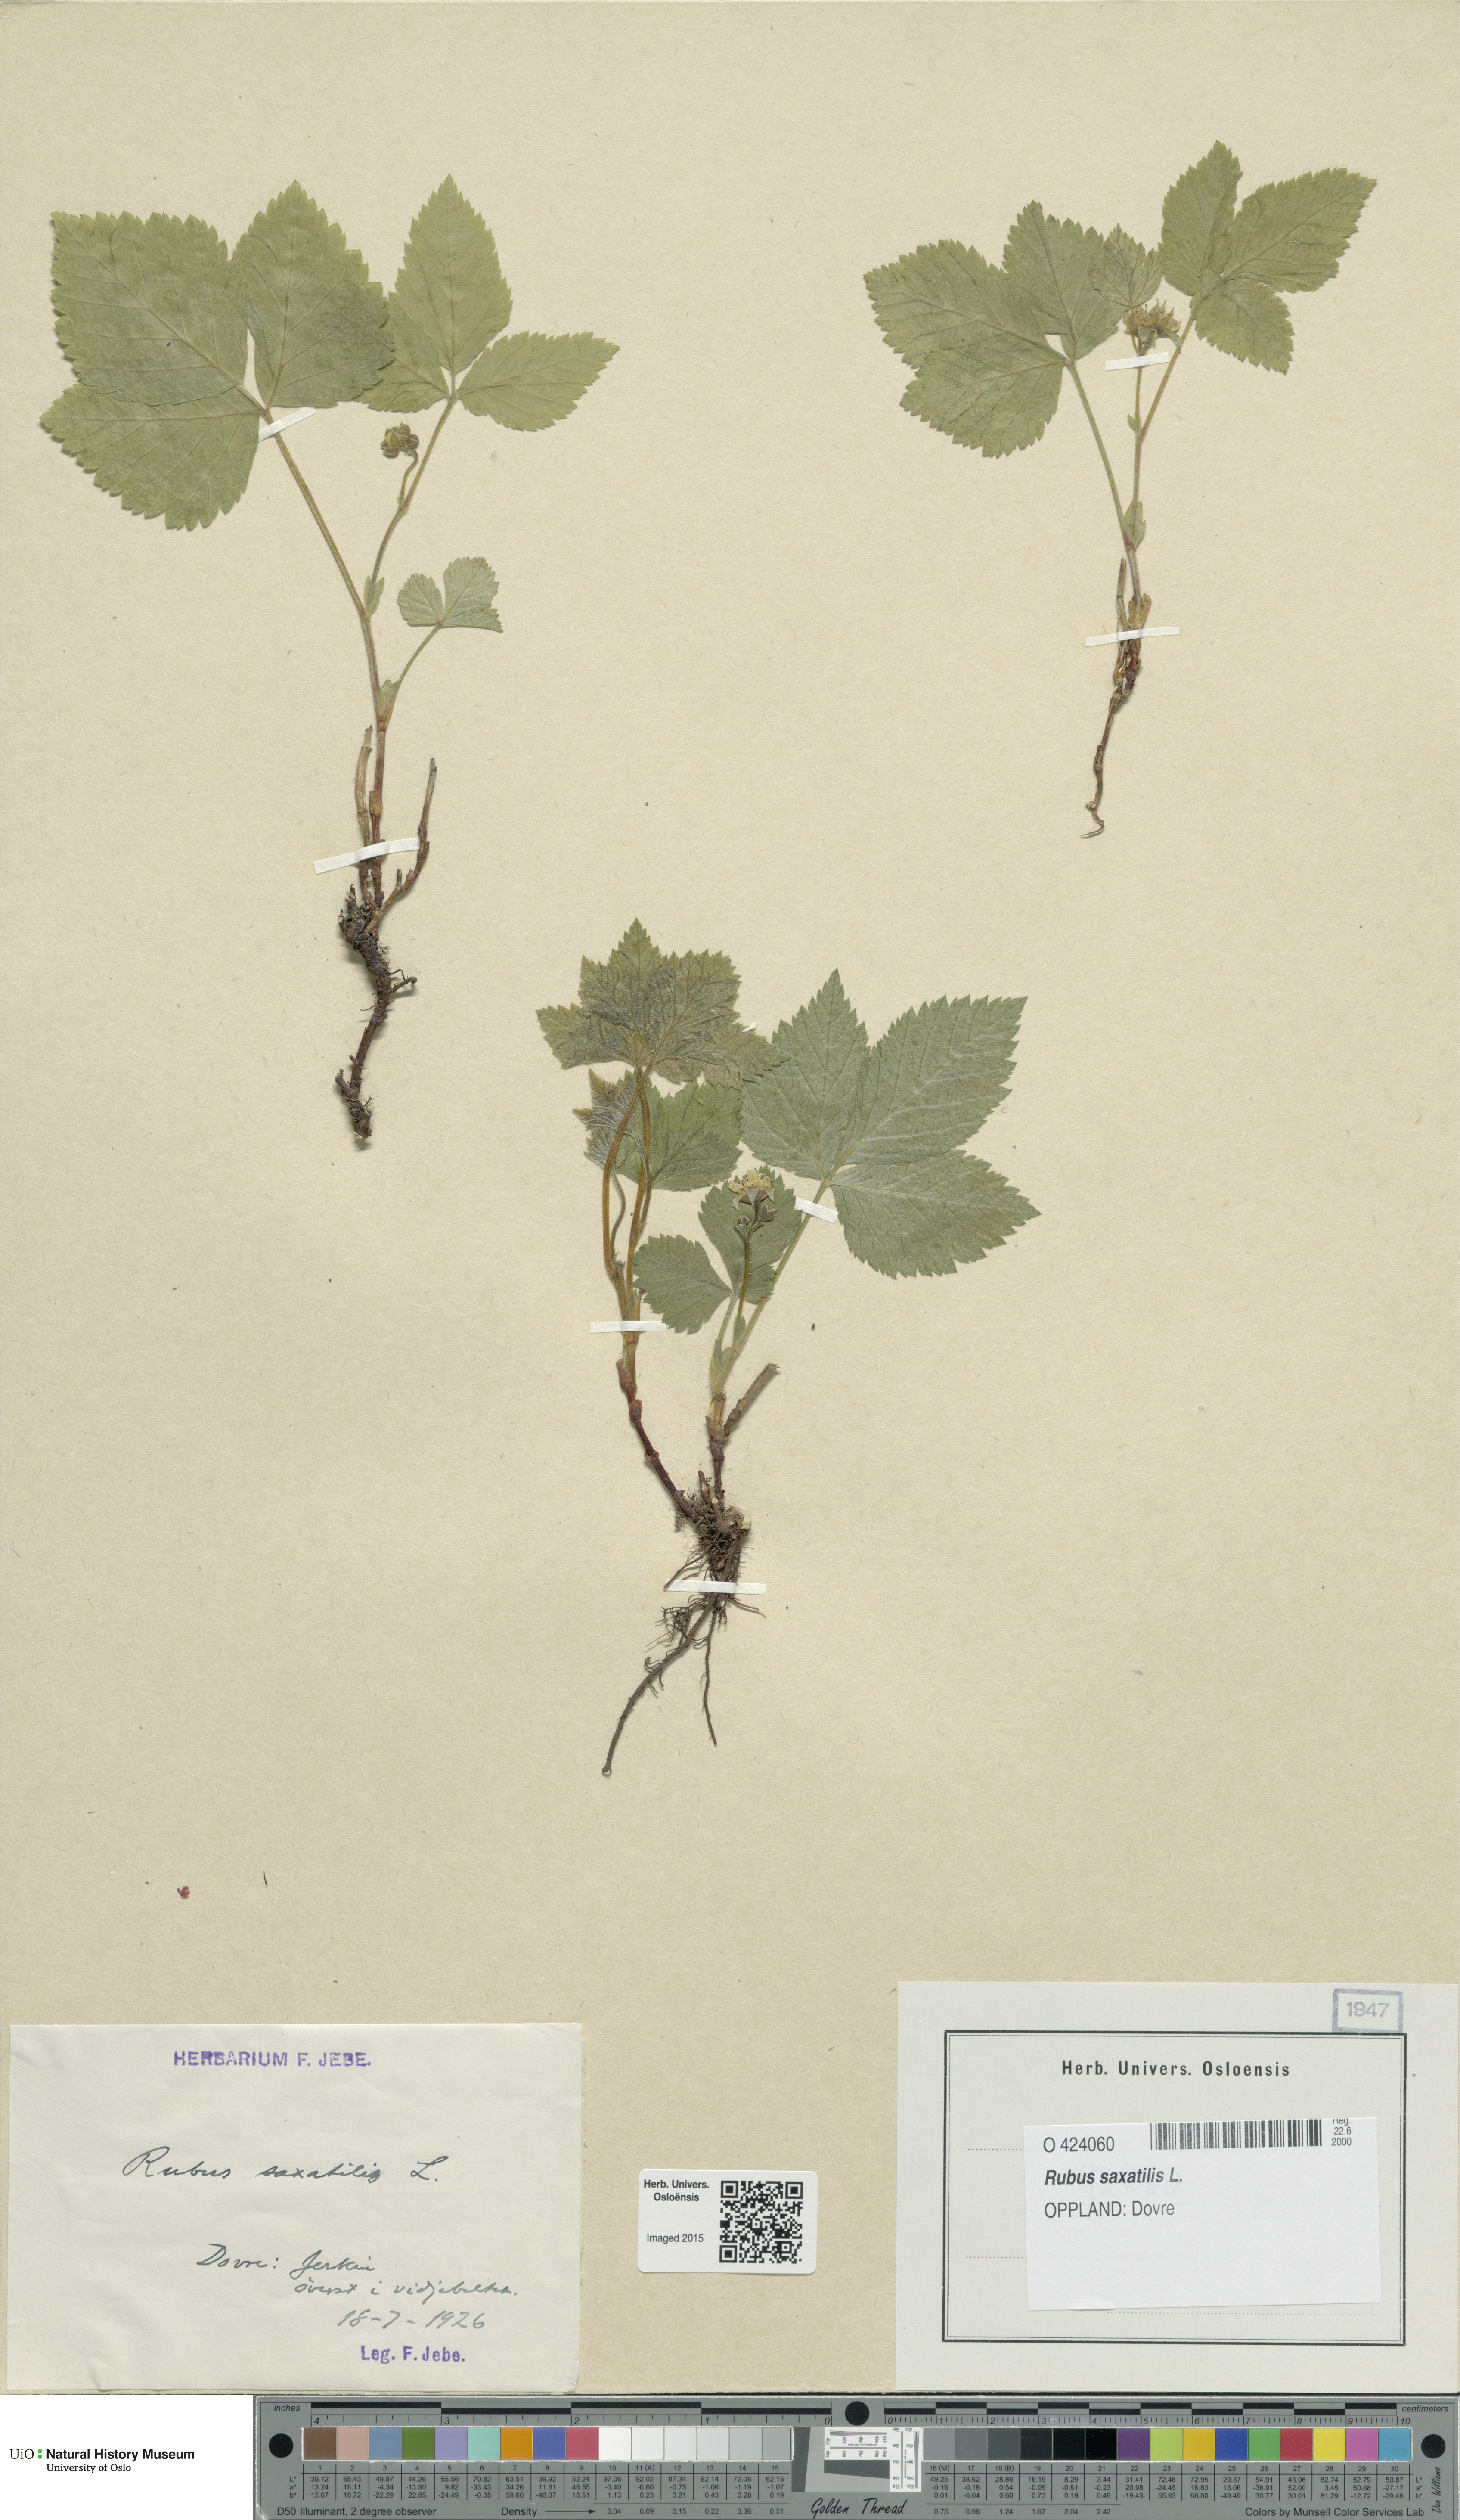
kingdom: Plantae
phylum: Tracheophyta
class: Magnoliopsida
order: Rosales
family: Rosaceae
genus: Rubus
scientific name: Rubus saxatilis
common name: Stone bramble
